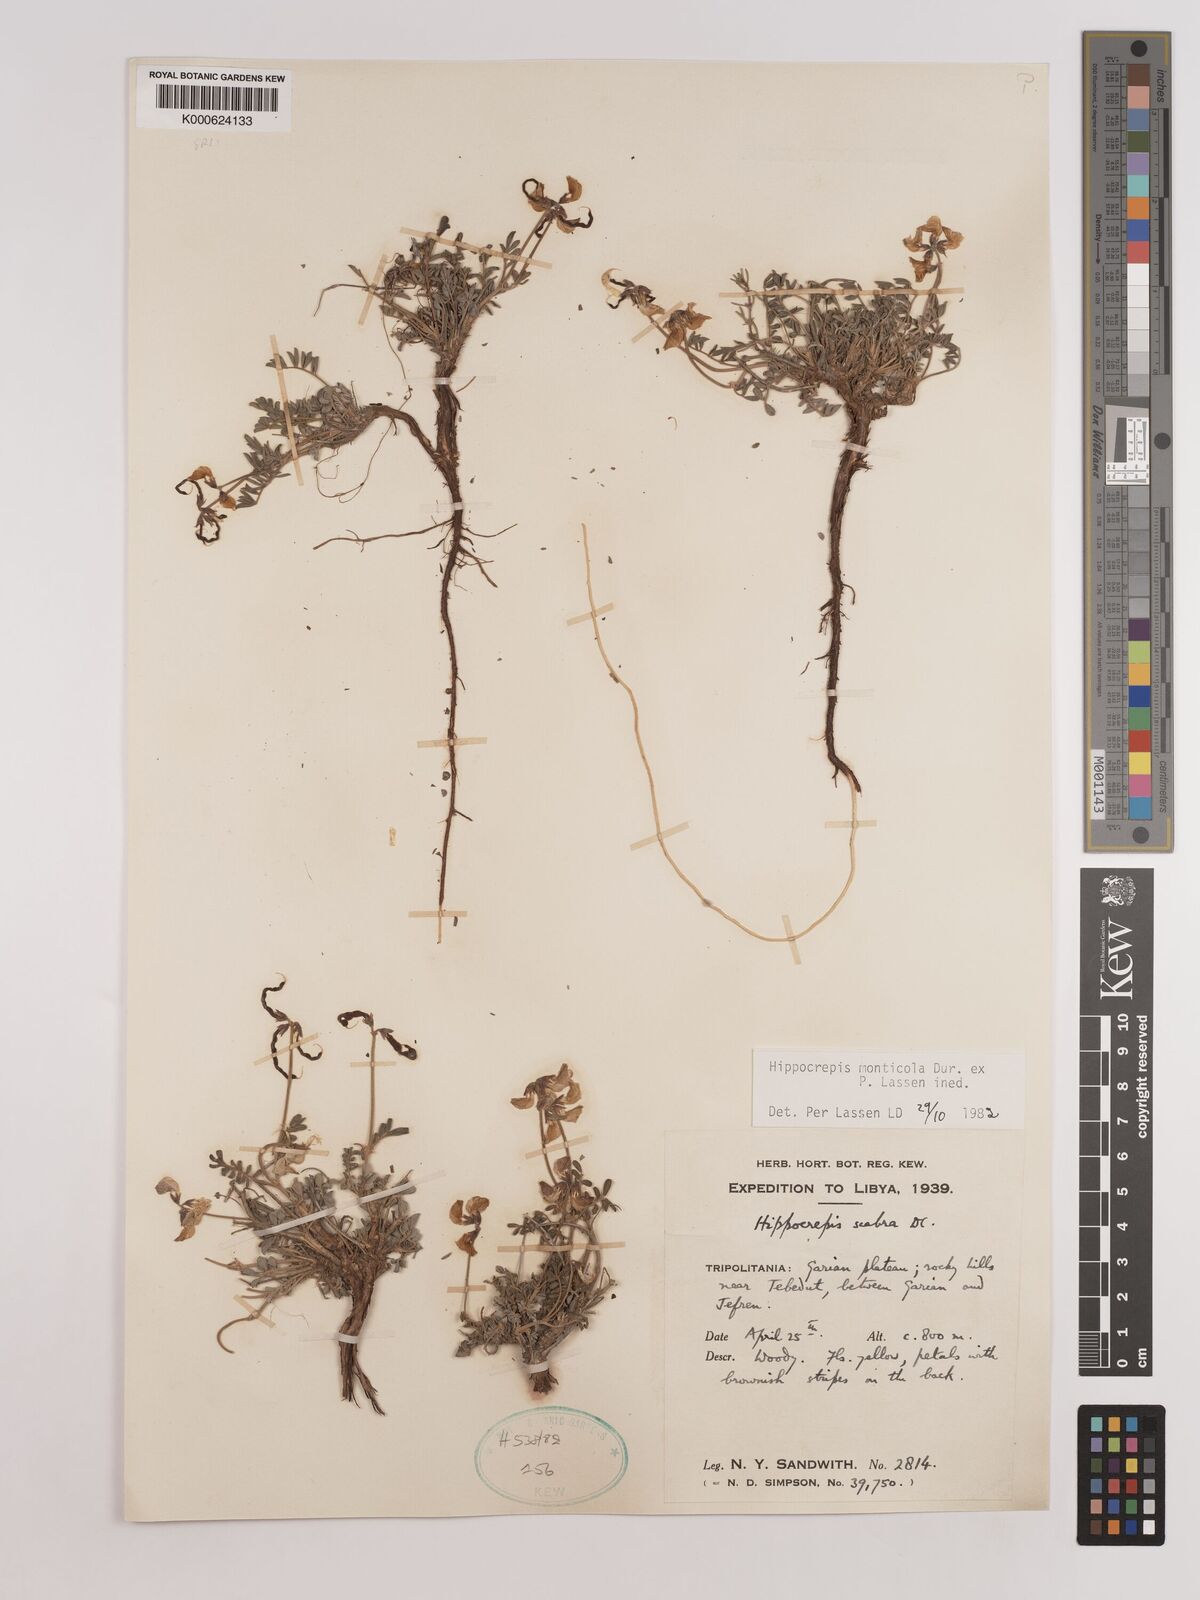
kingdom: Plantae
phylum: Tracheophyta
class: Magnoliopsida
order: Fabales
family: Fabaceae
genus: Hippocrepis
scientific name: Hippocrepis monticola
